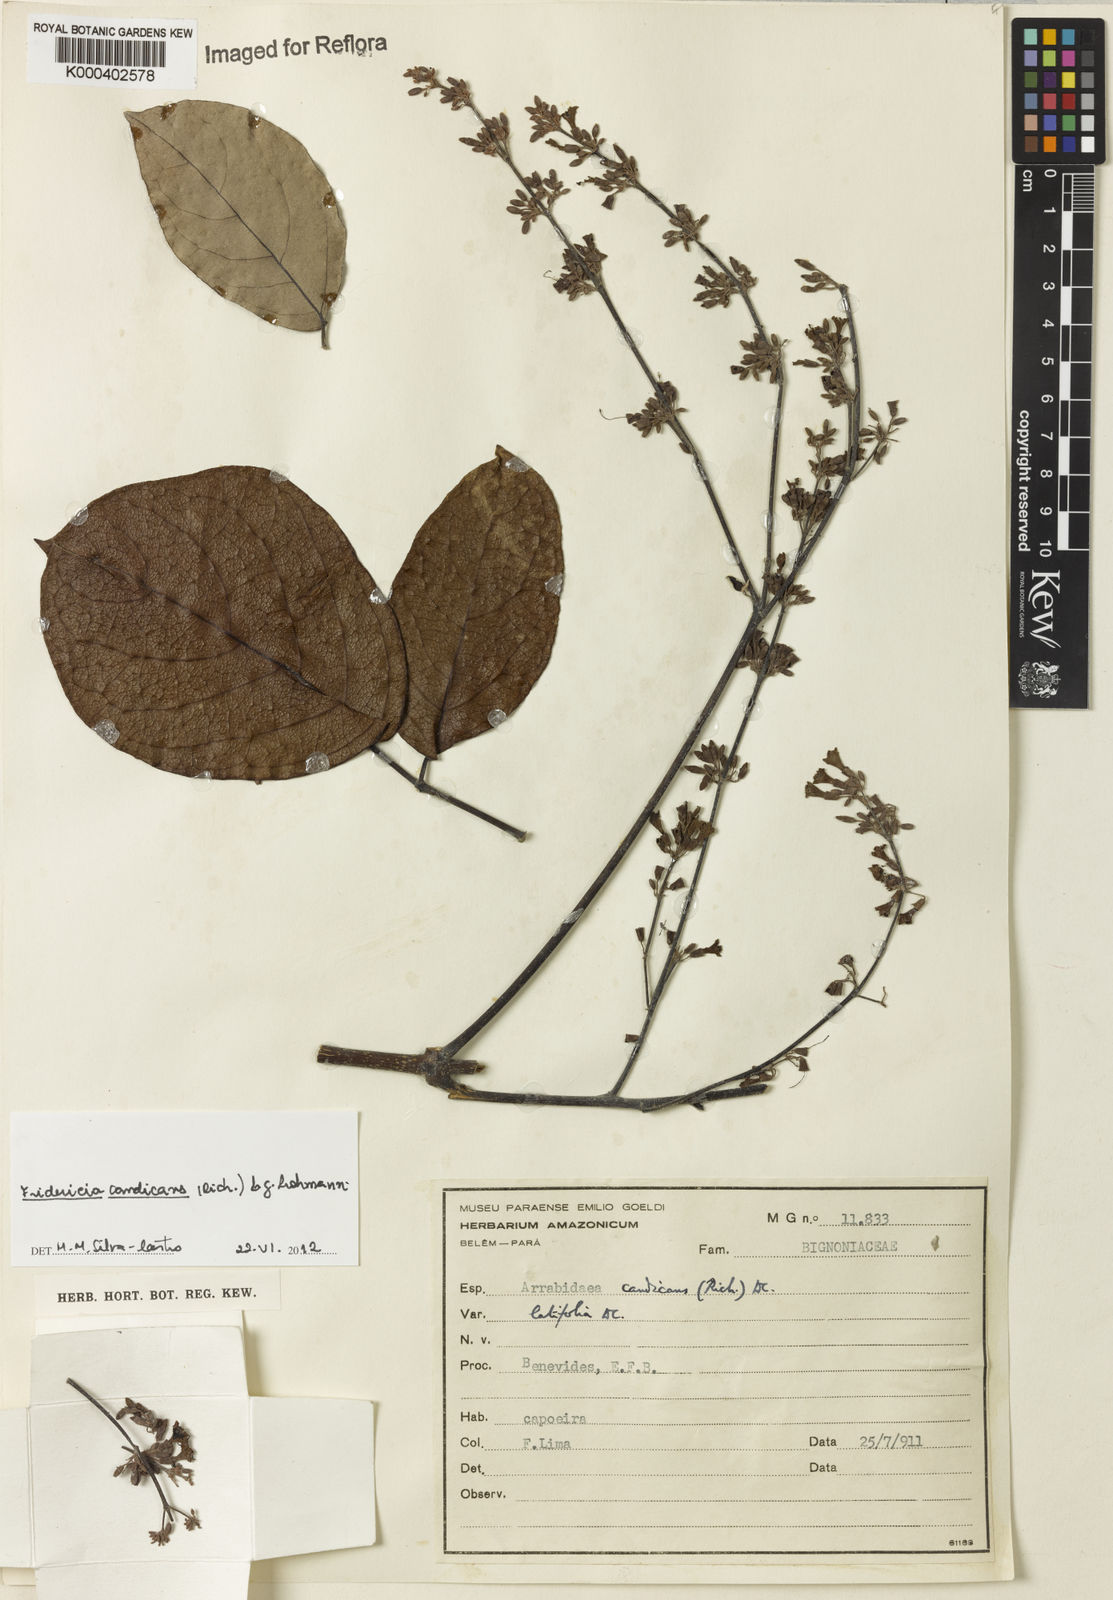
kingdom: Plantae
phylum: Tracheophyta
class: Magnoliopsida
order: Lamiales
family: Bignoniaceae
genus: Fridericia
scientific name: Fridericia
